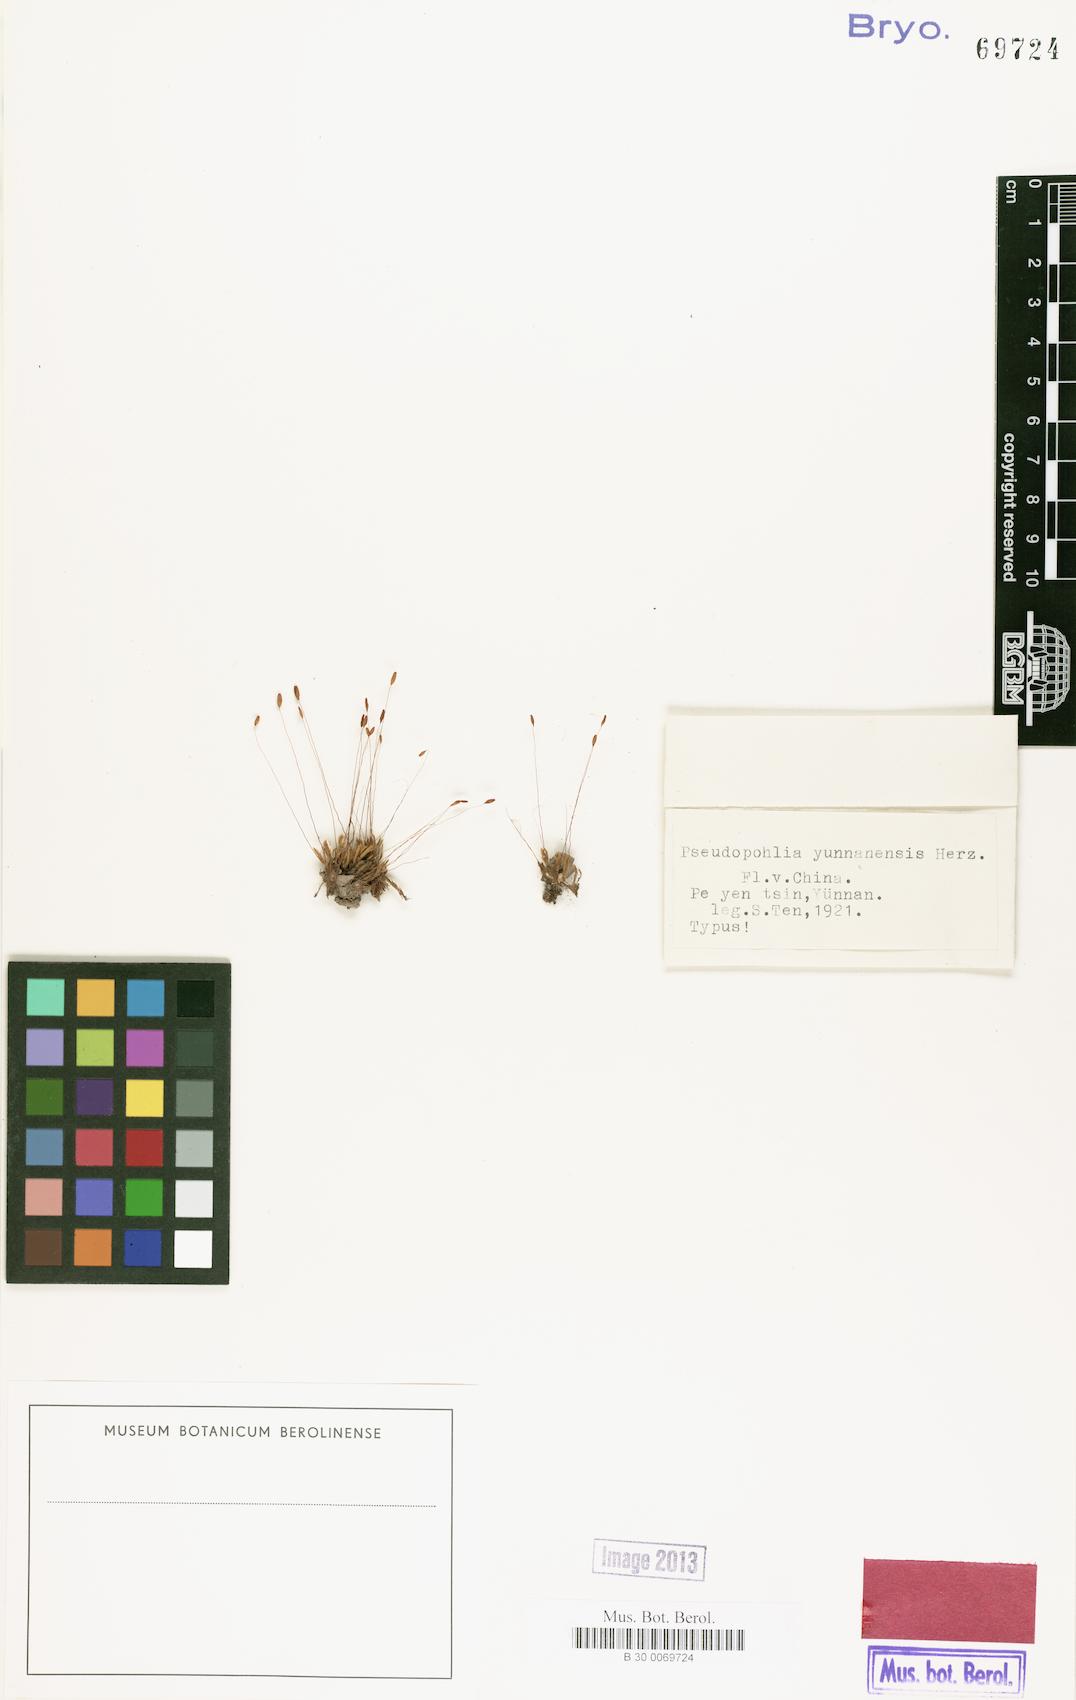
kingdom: Plantae
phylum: Bryophyta
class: Bryopsida
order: Bryales
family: Mniaceae
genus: Pseudopohlia
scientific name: Pseudopohlia microstoma
